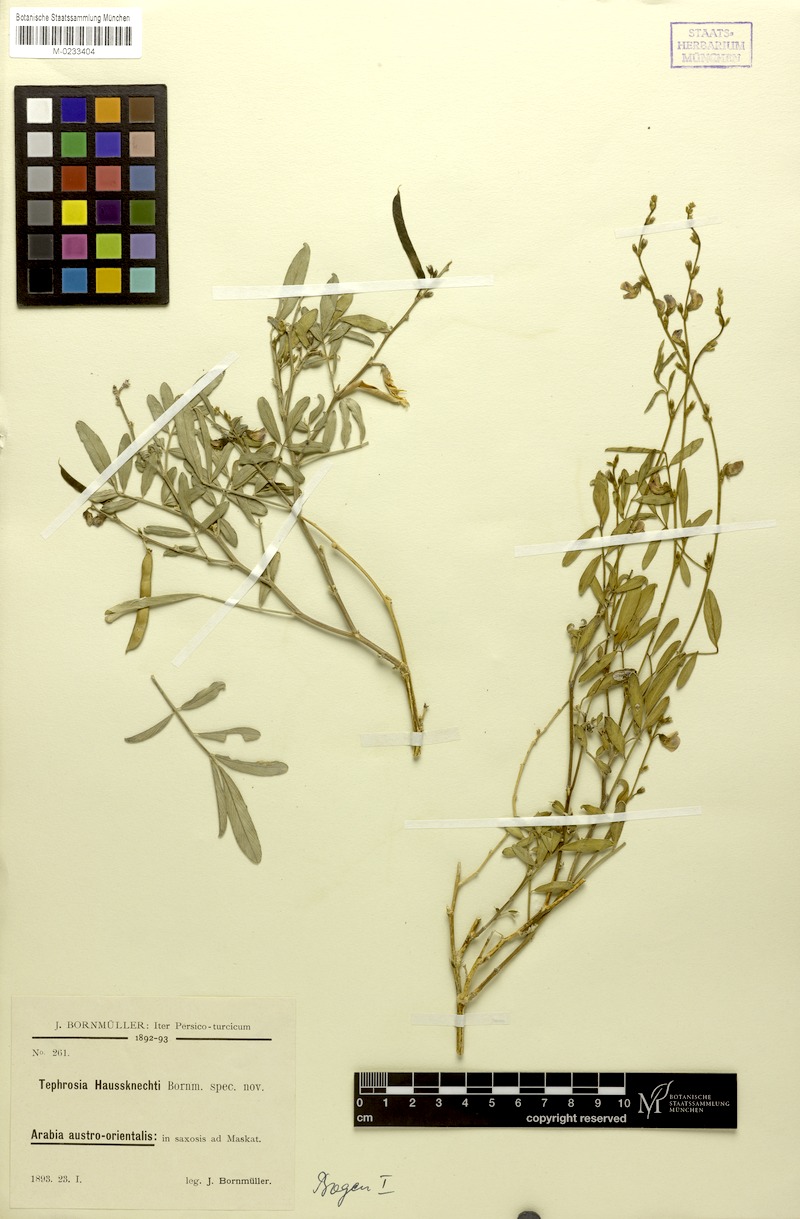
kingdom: Plantae
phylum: Tracheophyta
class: Magnoliopsida
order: Fabales
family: Fabaceae
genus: Tephrosia
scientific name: Tephrosia haussknechtii
